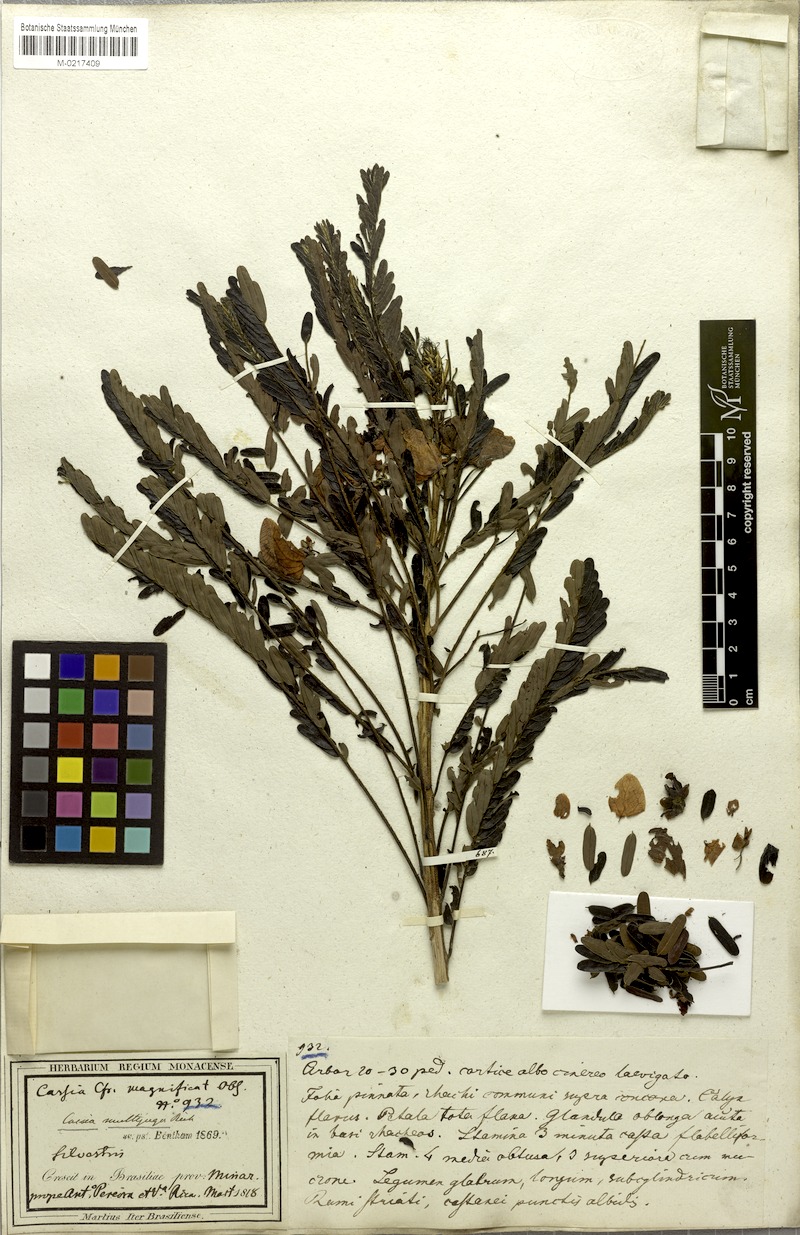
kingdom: Plantae
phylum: Tracheophyta
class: Magnoliopsida
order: Fabales
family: Fabaceae
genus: Senna
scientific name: Senna multijuga
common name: False sicklepod
